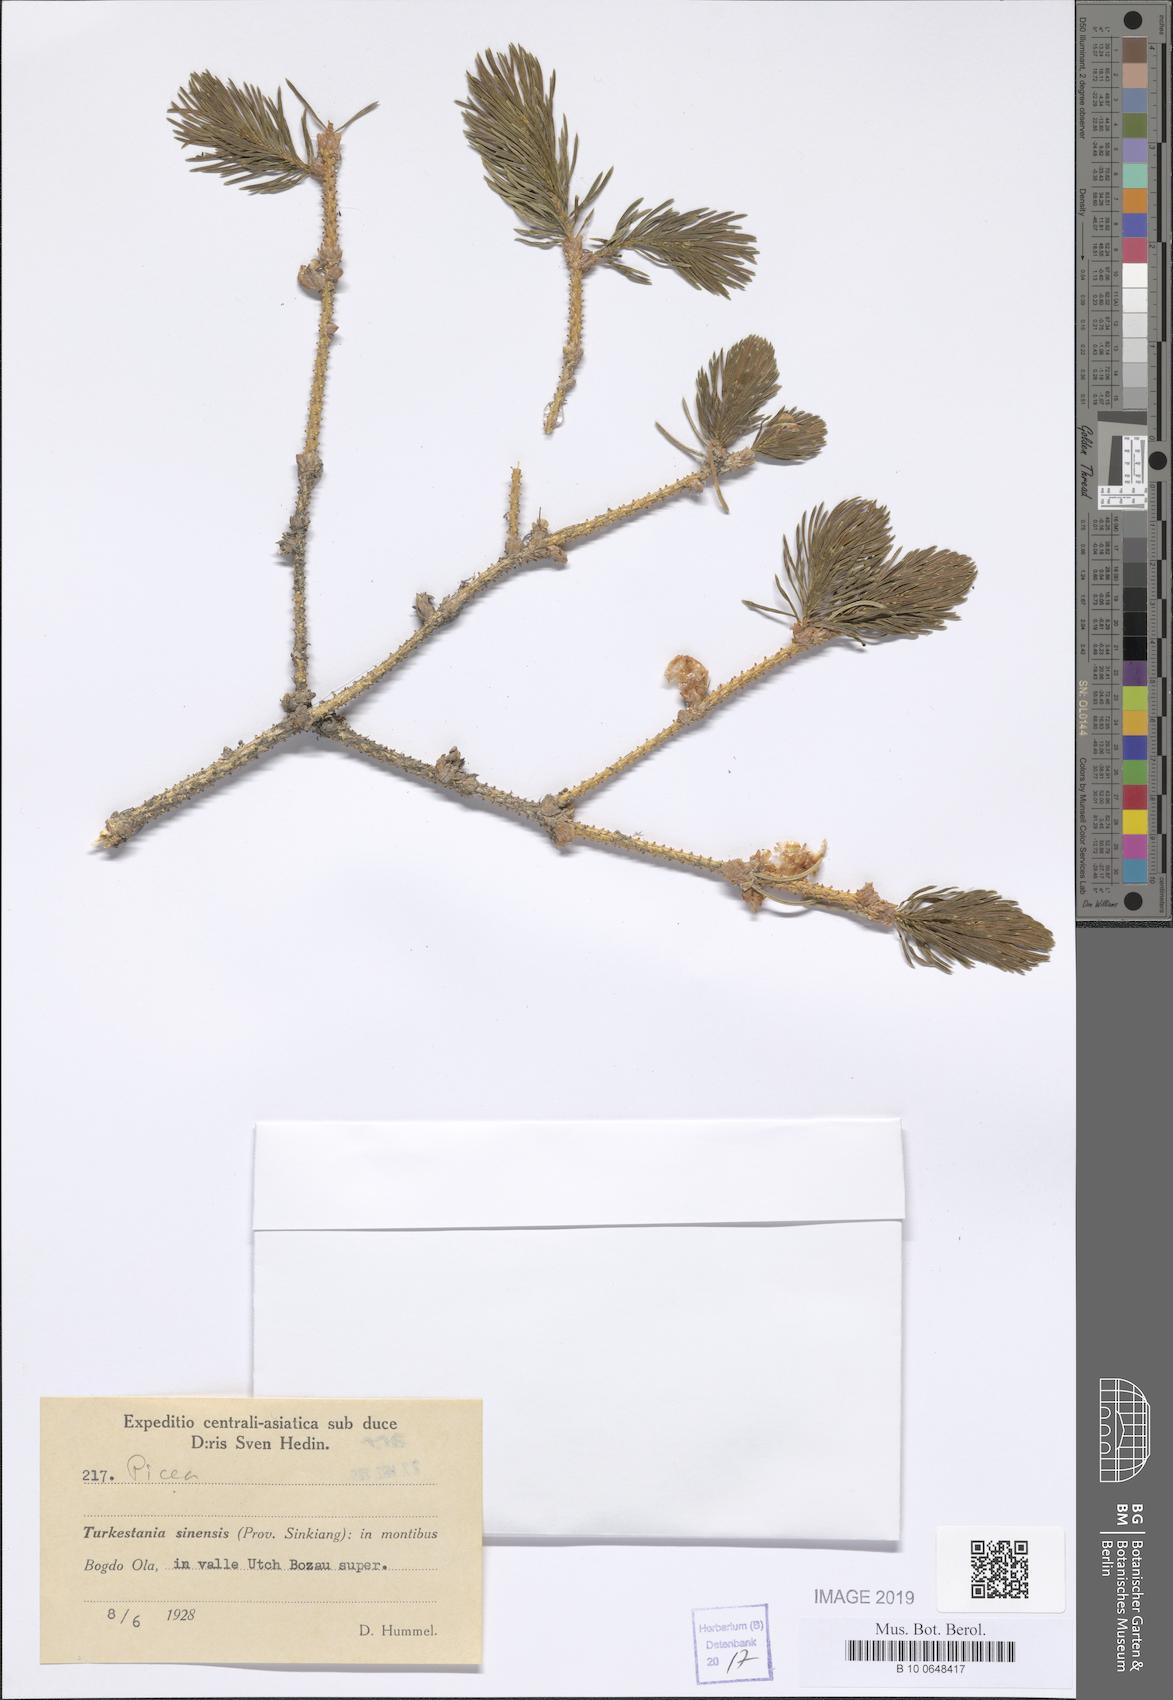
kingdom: Plantae
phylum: Tracheophyta
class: Pinopsida
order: Pinales
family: Pinaceae
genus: Picea
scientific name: Picea
